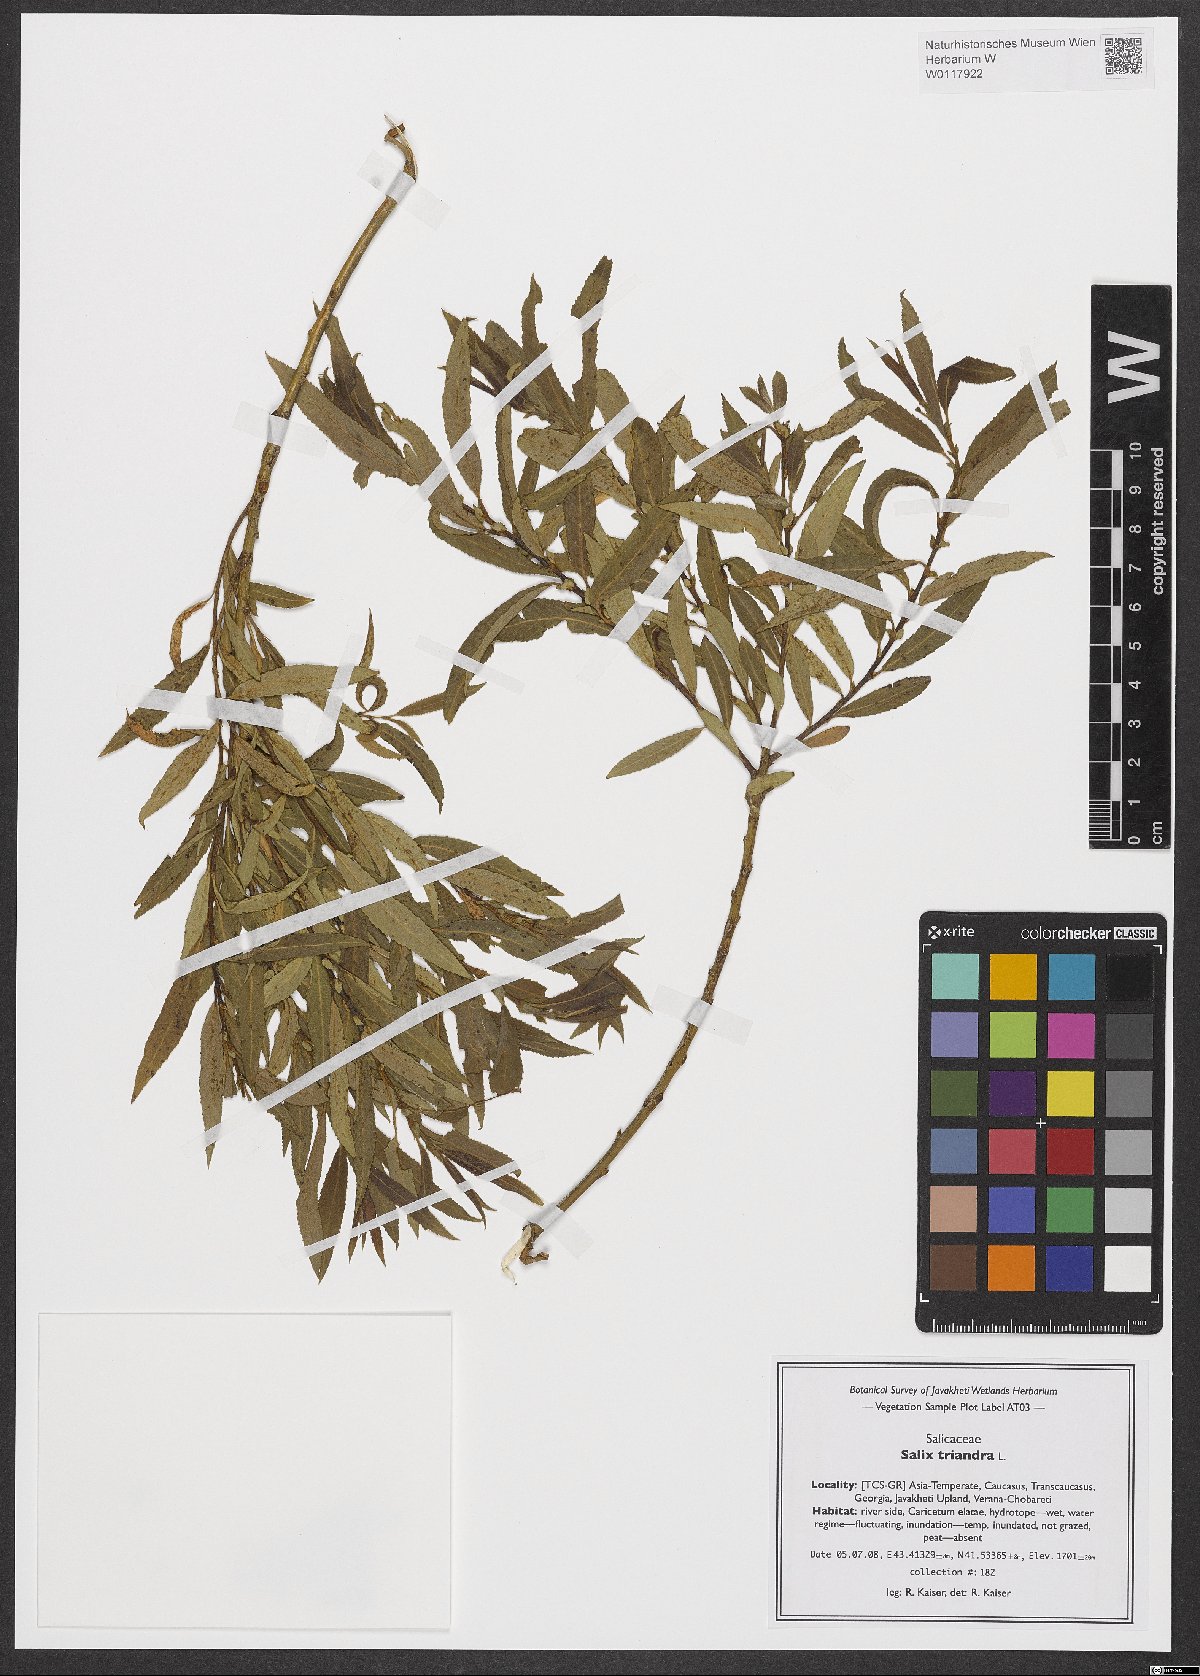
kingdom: Plantae
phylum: Tracheophyta
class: Magnoliopsida
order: Malpighiales
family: Salicaceae
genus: Salix
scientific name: Salix triandra
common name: Almond willow
